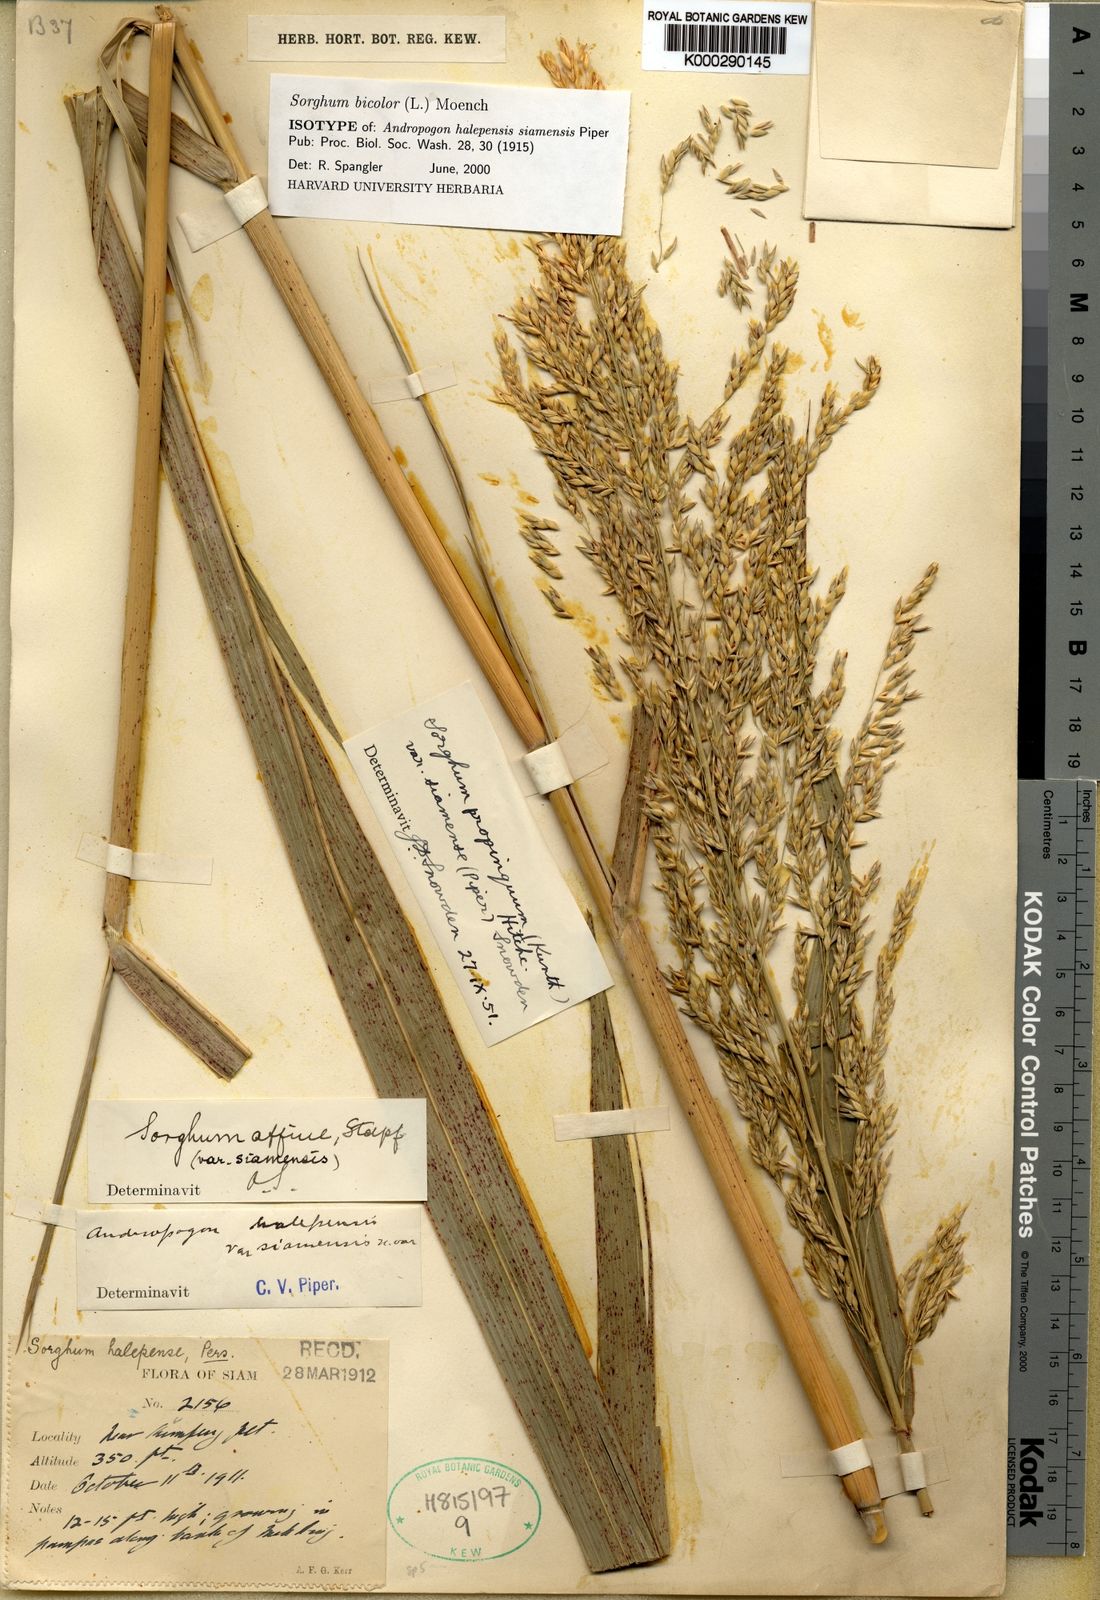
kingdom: Plantae
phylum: Tracheophyta
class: Liliopsida
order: Poales
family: Poaceae
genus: Sorghum
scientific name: Sorghum propinquum
